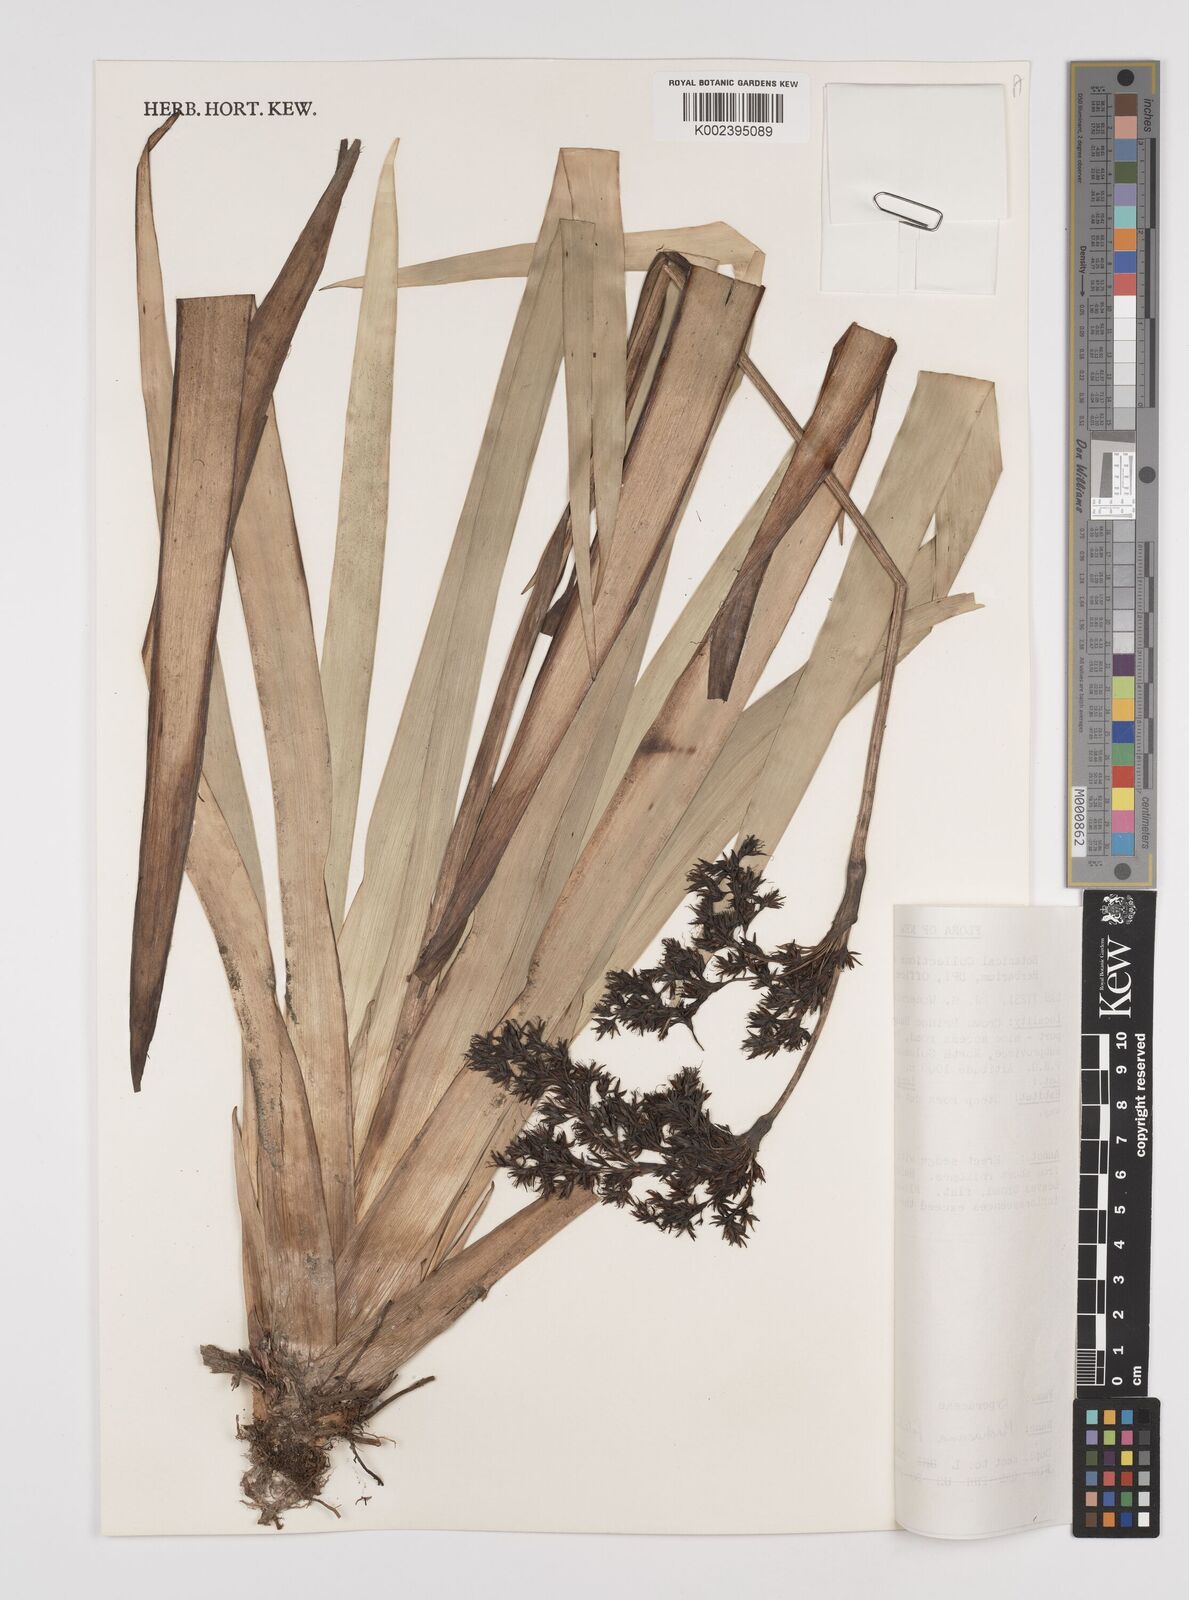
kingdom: Plantae
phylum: Tracheophyta
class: Liliopsida
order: Poales
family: Cyperaceae
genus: Machaerina
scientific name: Machaerina falcata
